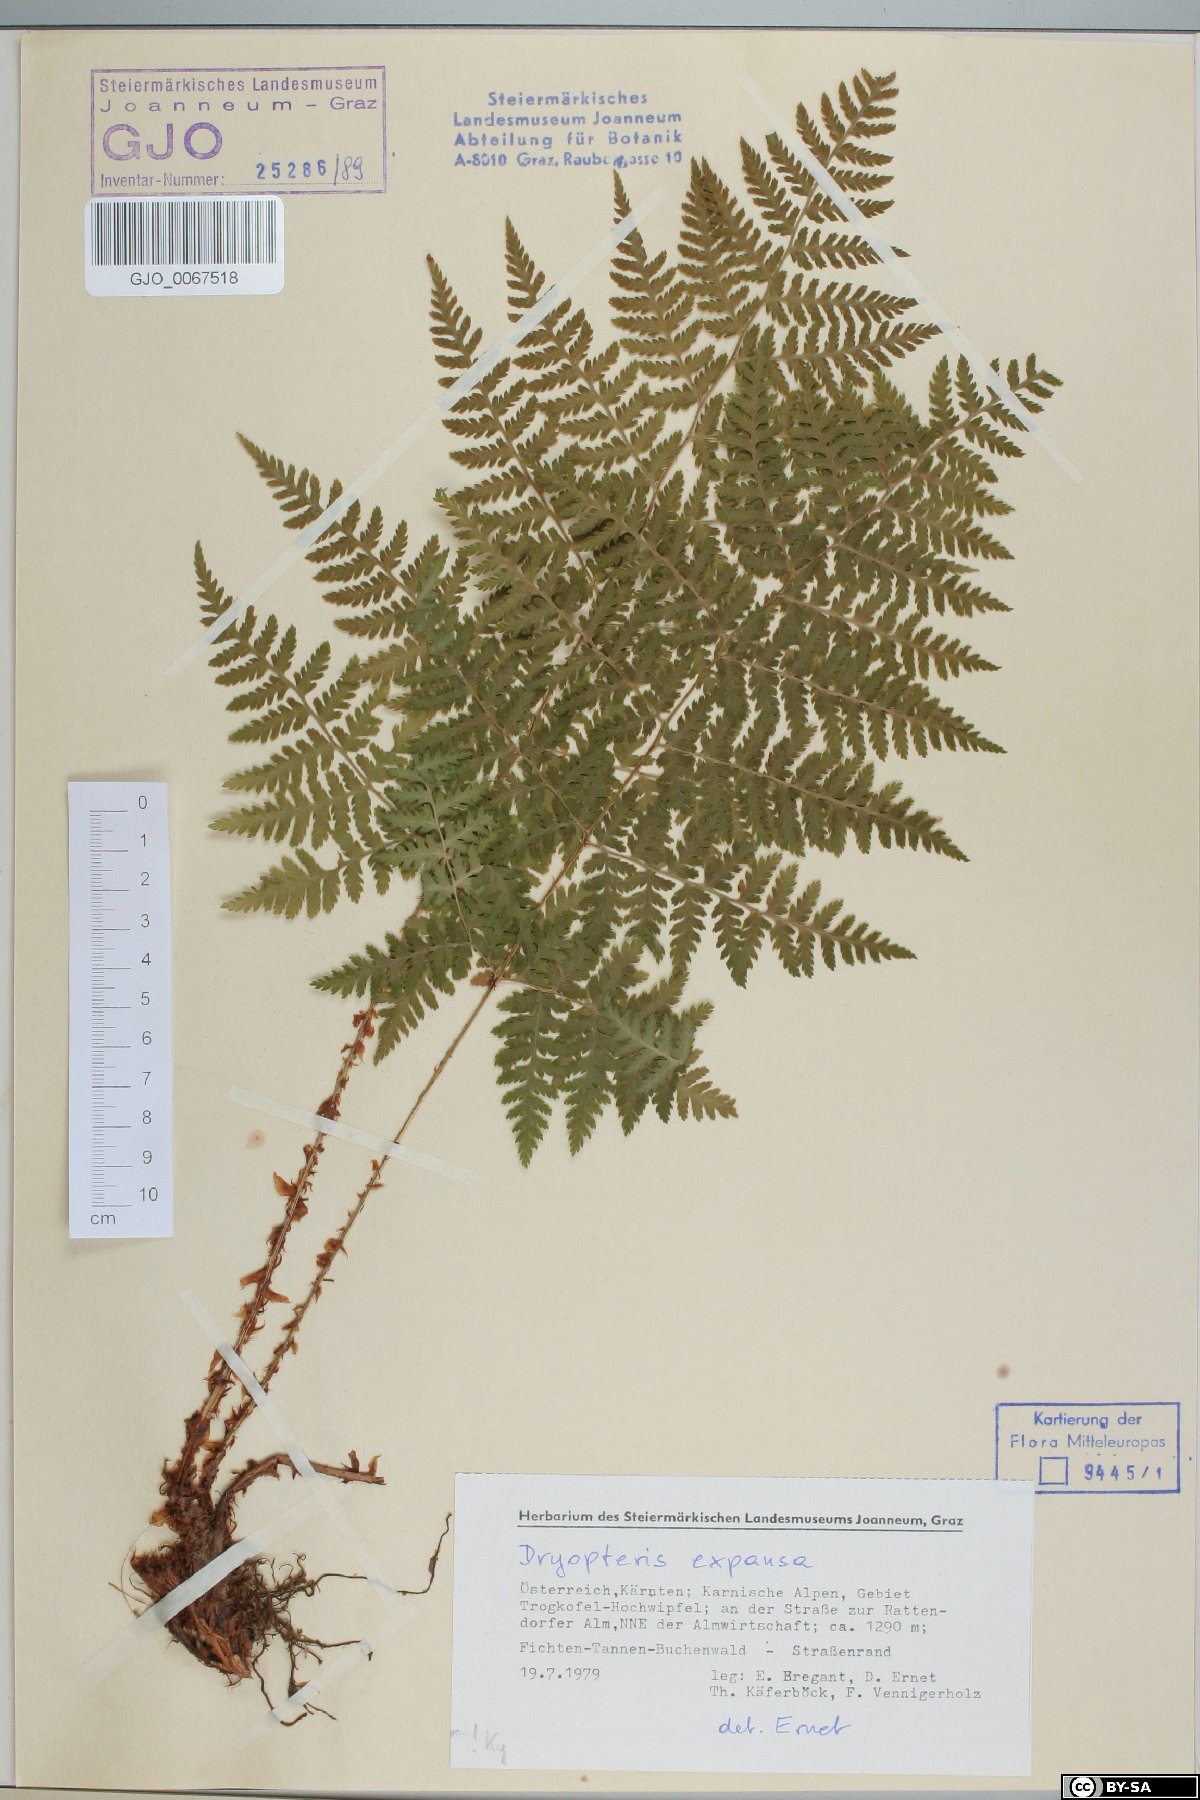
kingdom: Plantae
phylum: Tracheophyta
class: Polypodiopsida
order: Polypodiales
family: Dryopteridaceae
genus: Dryopteris
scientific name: Dryopteris expansa
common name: Northern buckler fern
